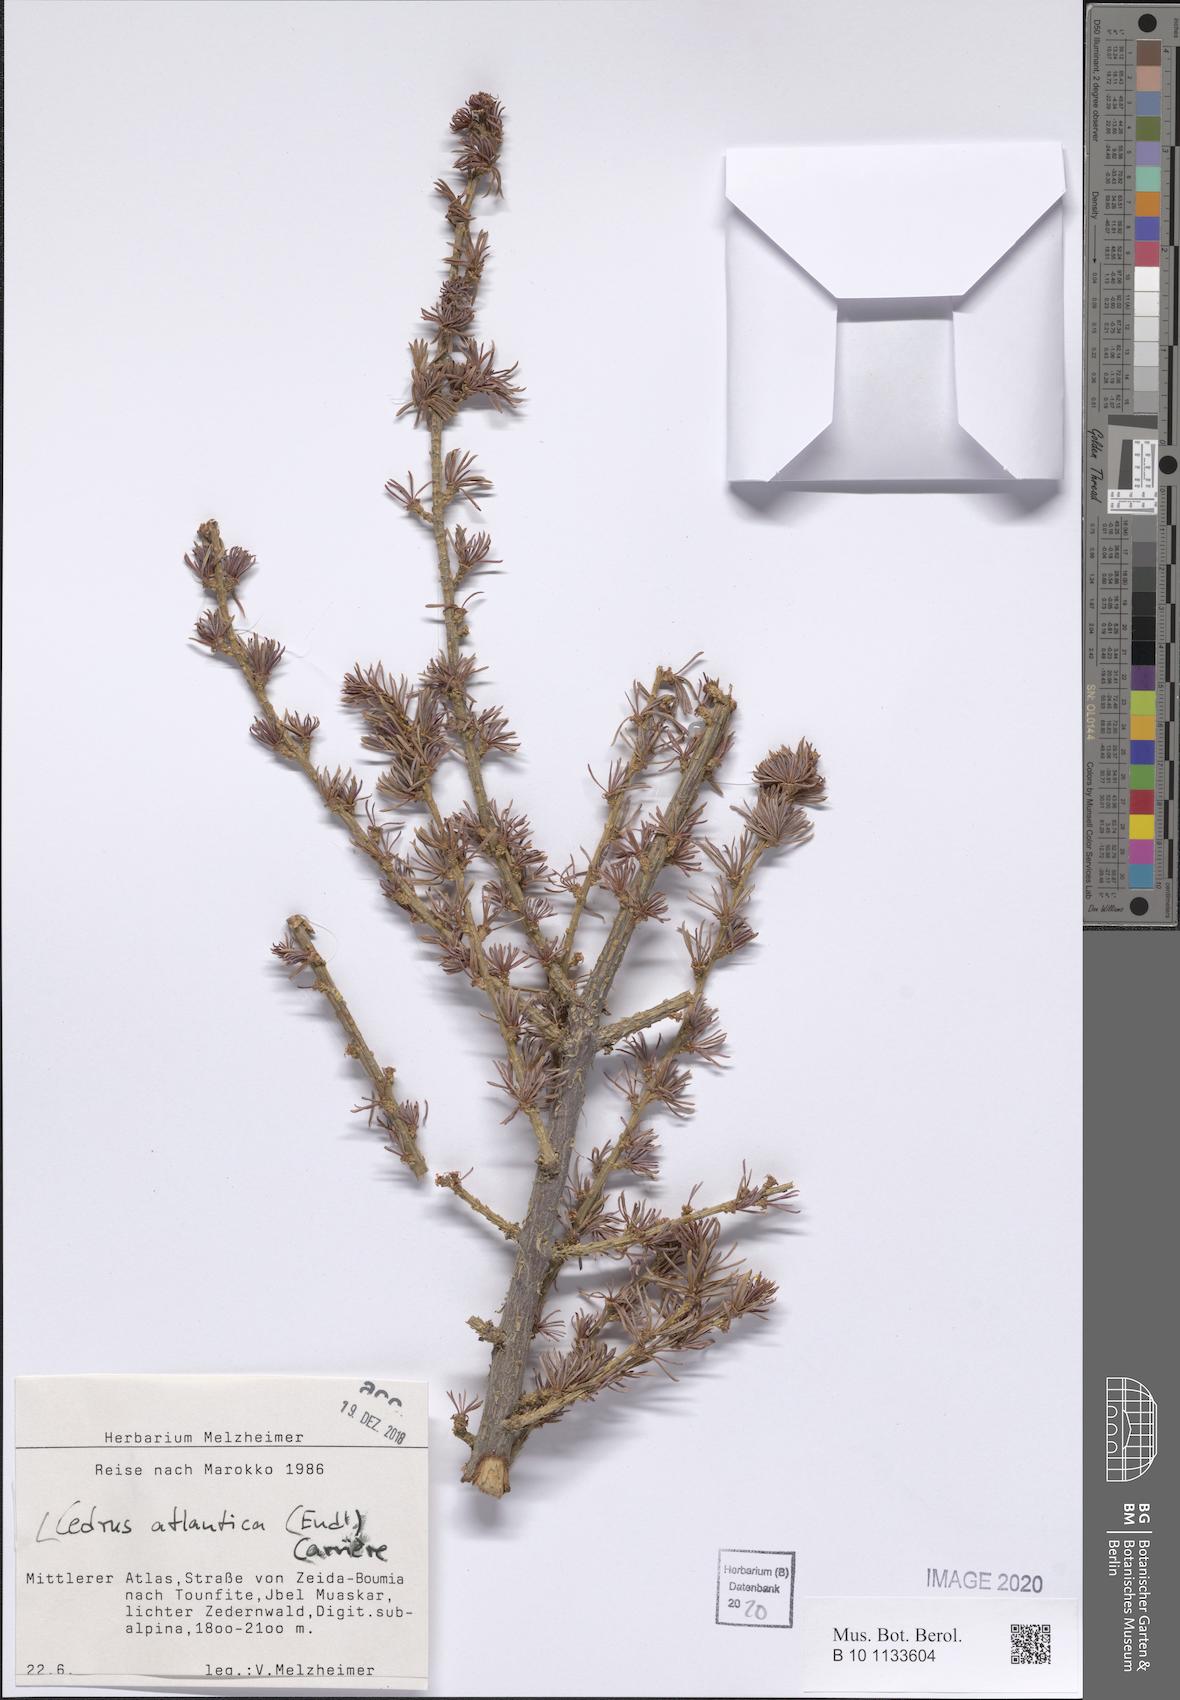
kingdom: Plantae
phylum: Tracheophyta
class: Pinopsida
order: Pinales
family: Pinaceae
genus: Cedrus
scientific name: Cedrus atlantica
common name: Atlas cedar
